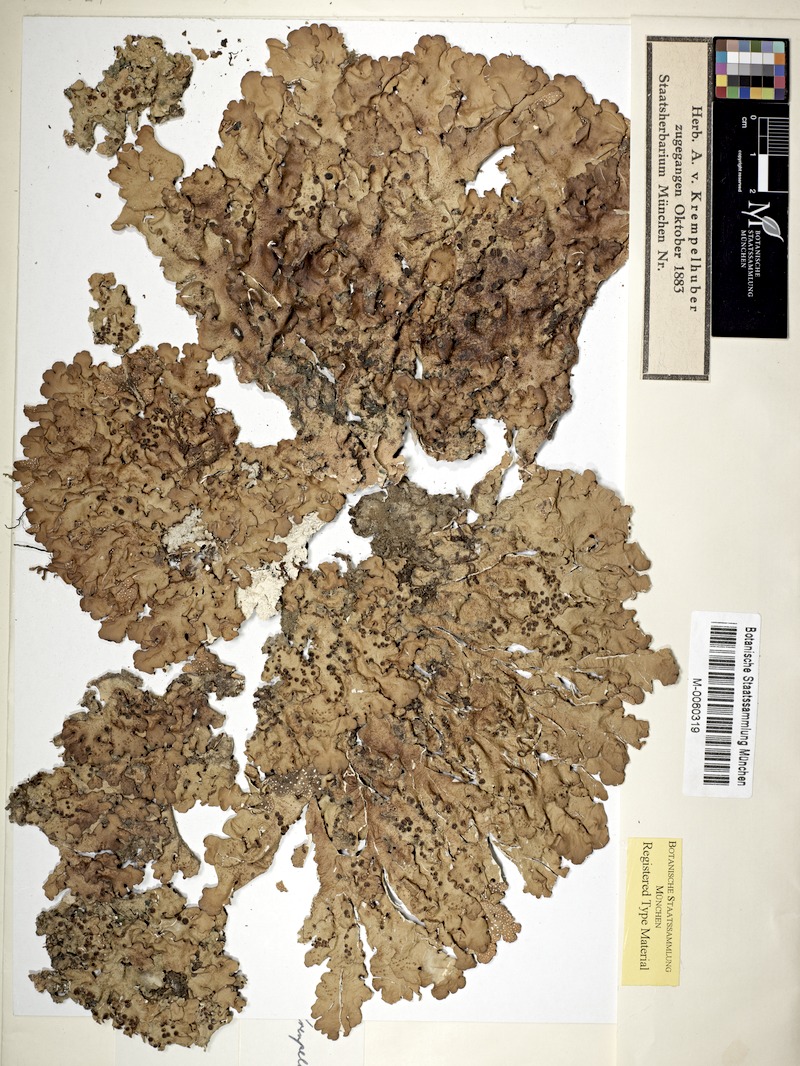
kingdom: Fungi
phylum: Ascomycota
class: Lecanoromycetes
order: Peltigerales
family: Lobariaceae
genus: Pseudocyphellaria
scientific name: Pseudocyphellaria
